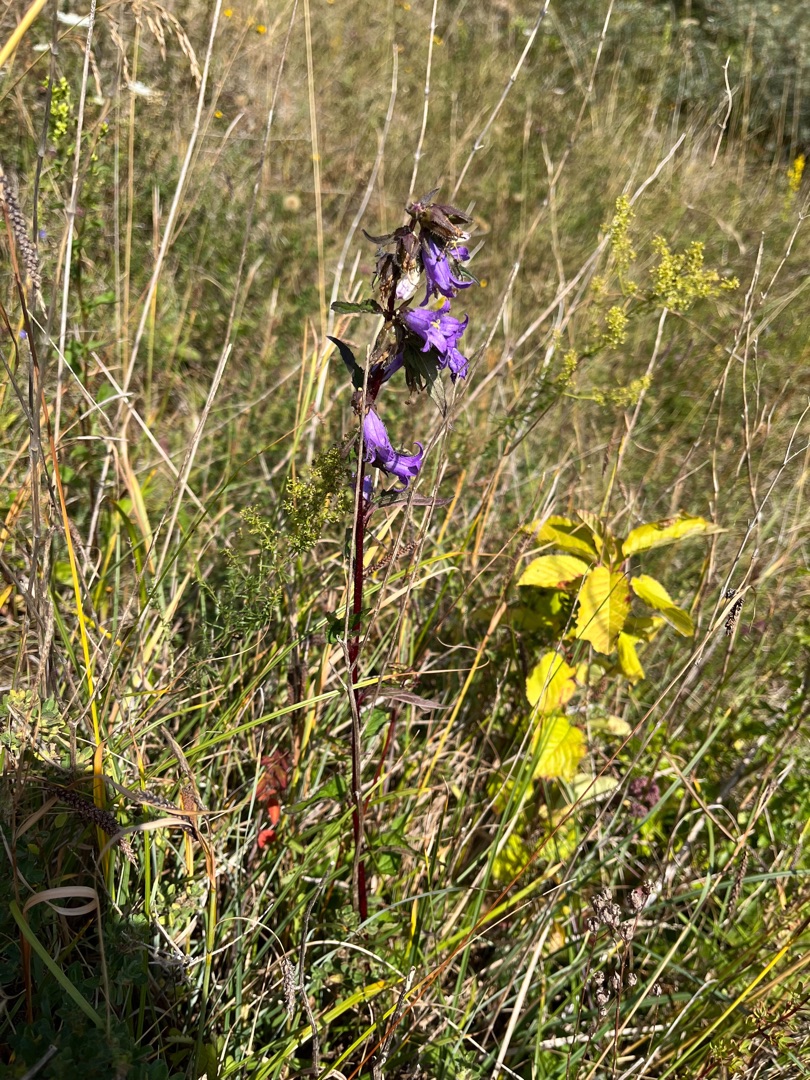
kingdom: Plantae
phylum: Tracheophyta
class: Magnoliopsida
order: Asterales
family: Campanulaceae
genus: Campanula
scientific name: Campanula trachelium
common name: Nælde-klokke
